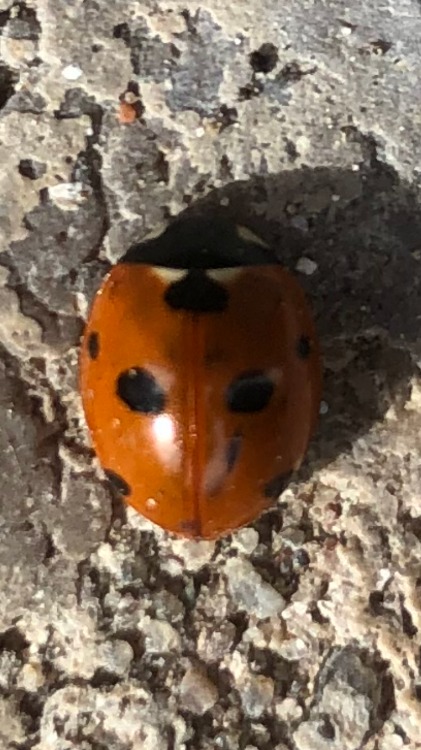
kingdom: Animalia
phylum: Arthropoda
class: Insecta
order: Coleoptera
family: Coccinellidae
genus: Coccinella
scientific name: Coccinella septempunctata
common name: Syvplettet mariehøne
